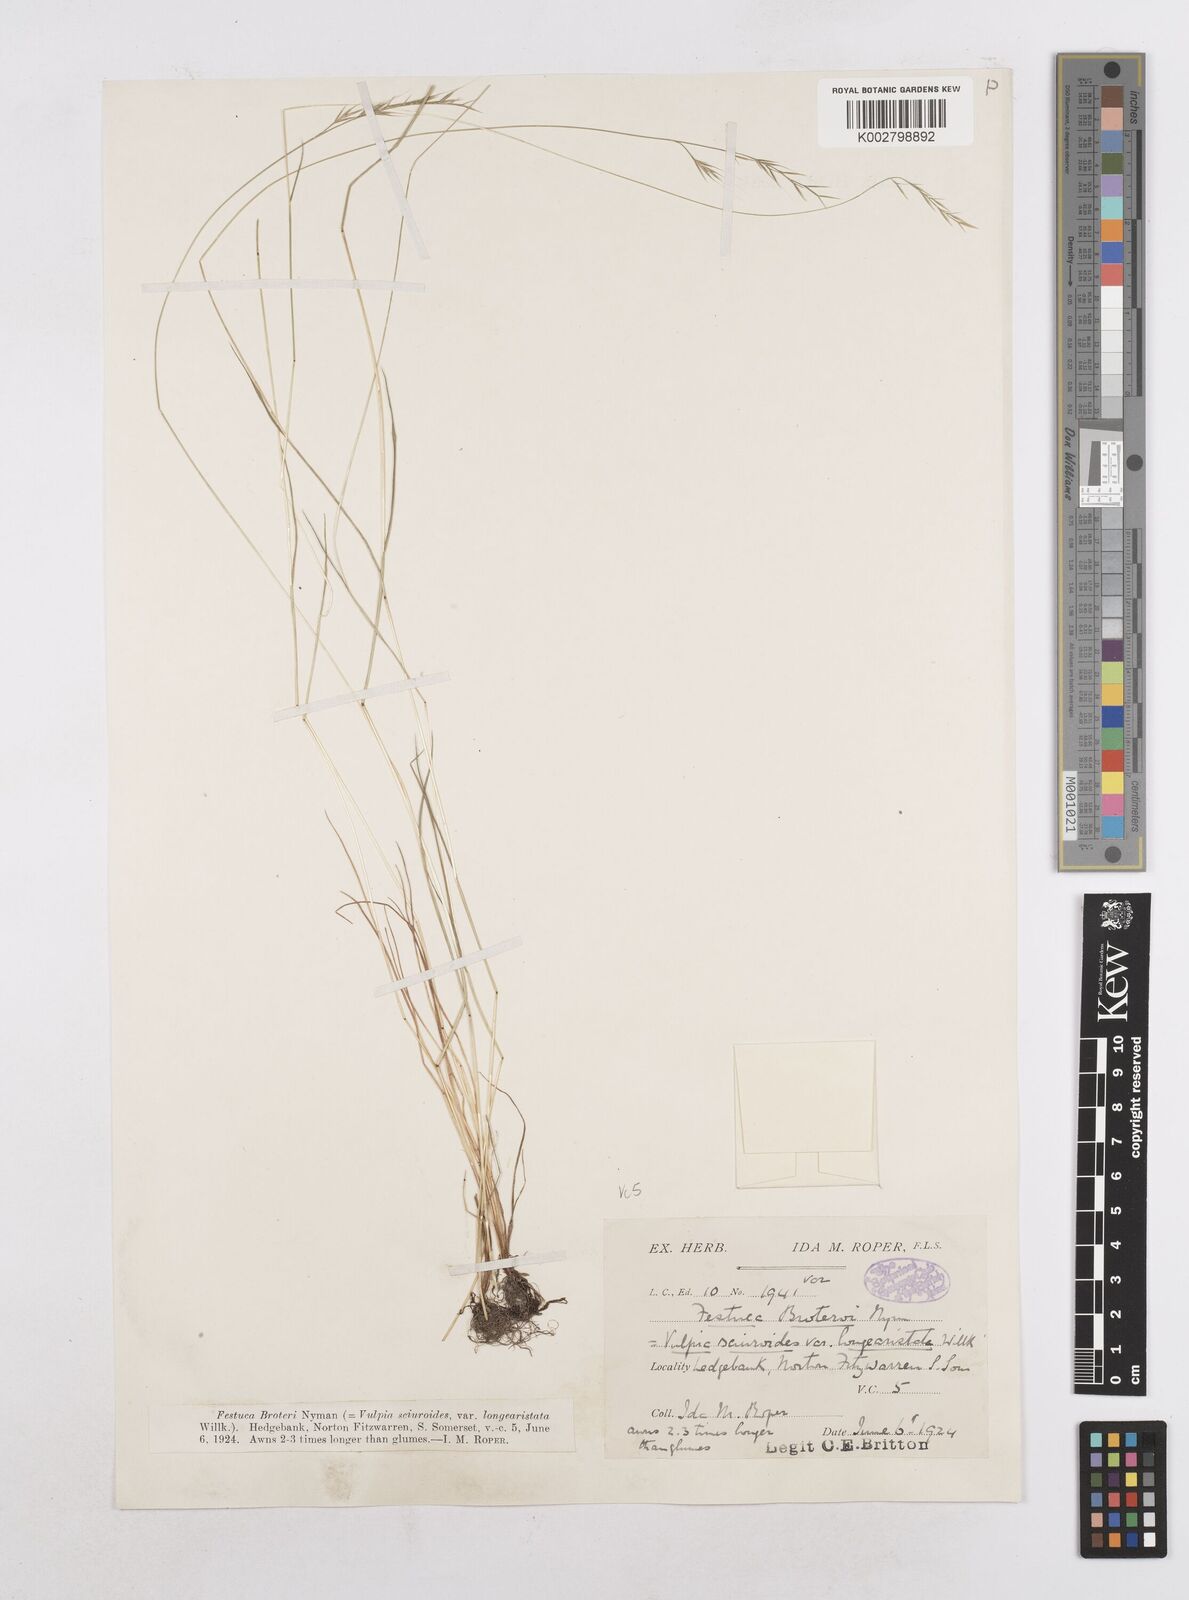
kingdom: Plantae
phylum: Tracheophyta
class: Liliopsida
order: Poales
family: Poaceae
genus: Festuca
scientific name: Festuca
